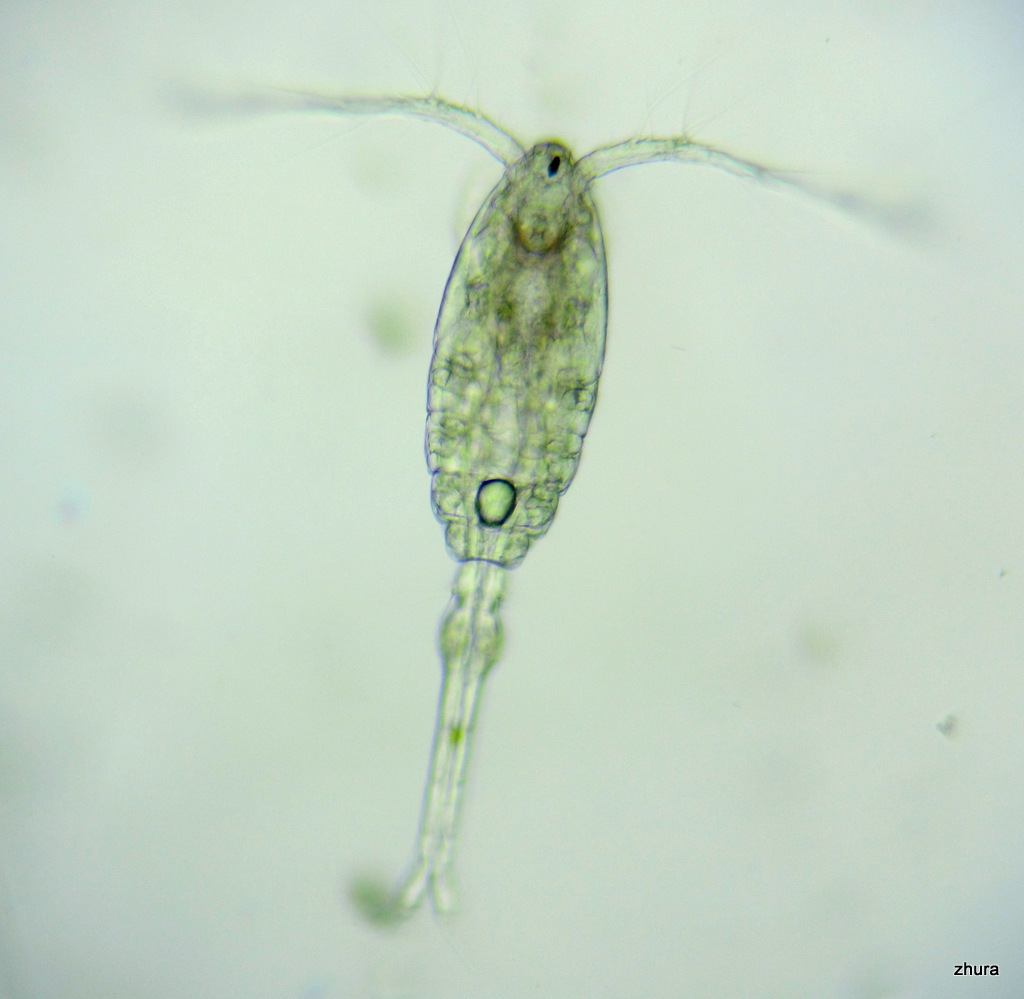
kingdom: Animalia
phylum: Arthropoda
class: Copepoda
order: Cyclopoida
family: Oithonidae
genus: Oithona
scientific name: Oithona similis
